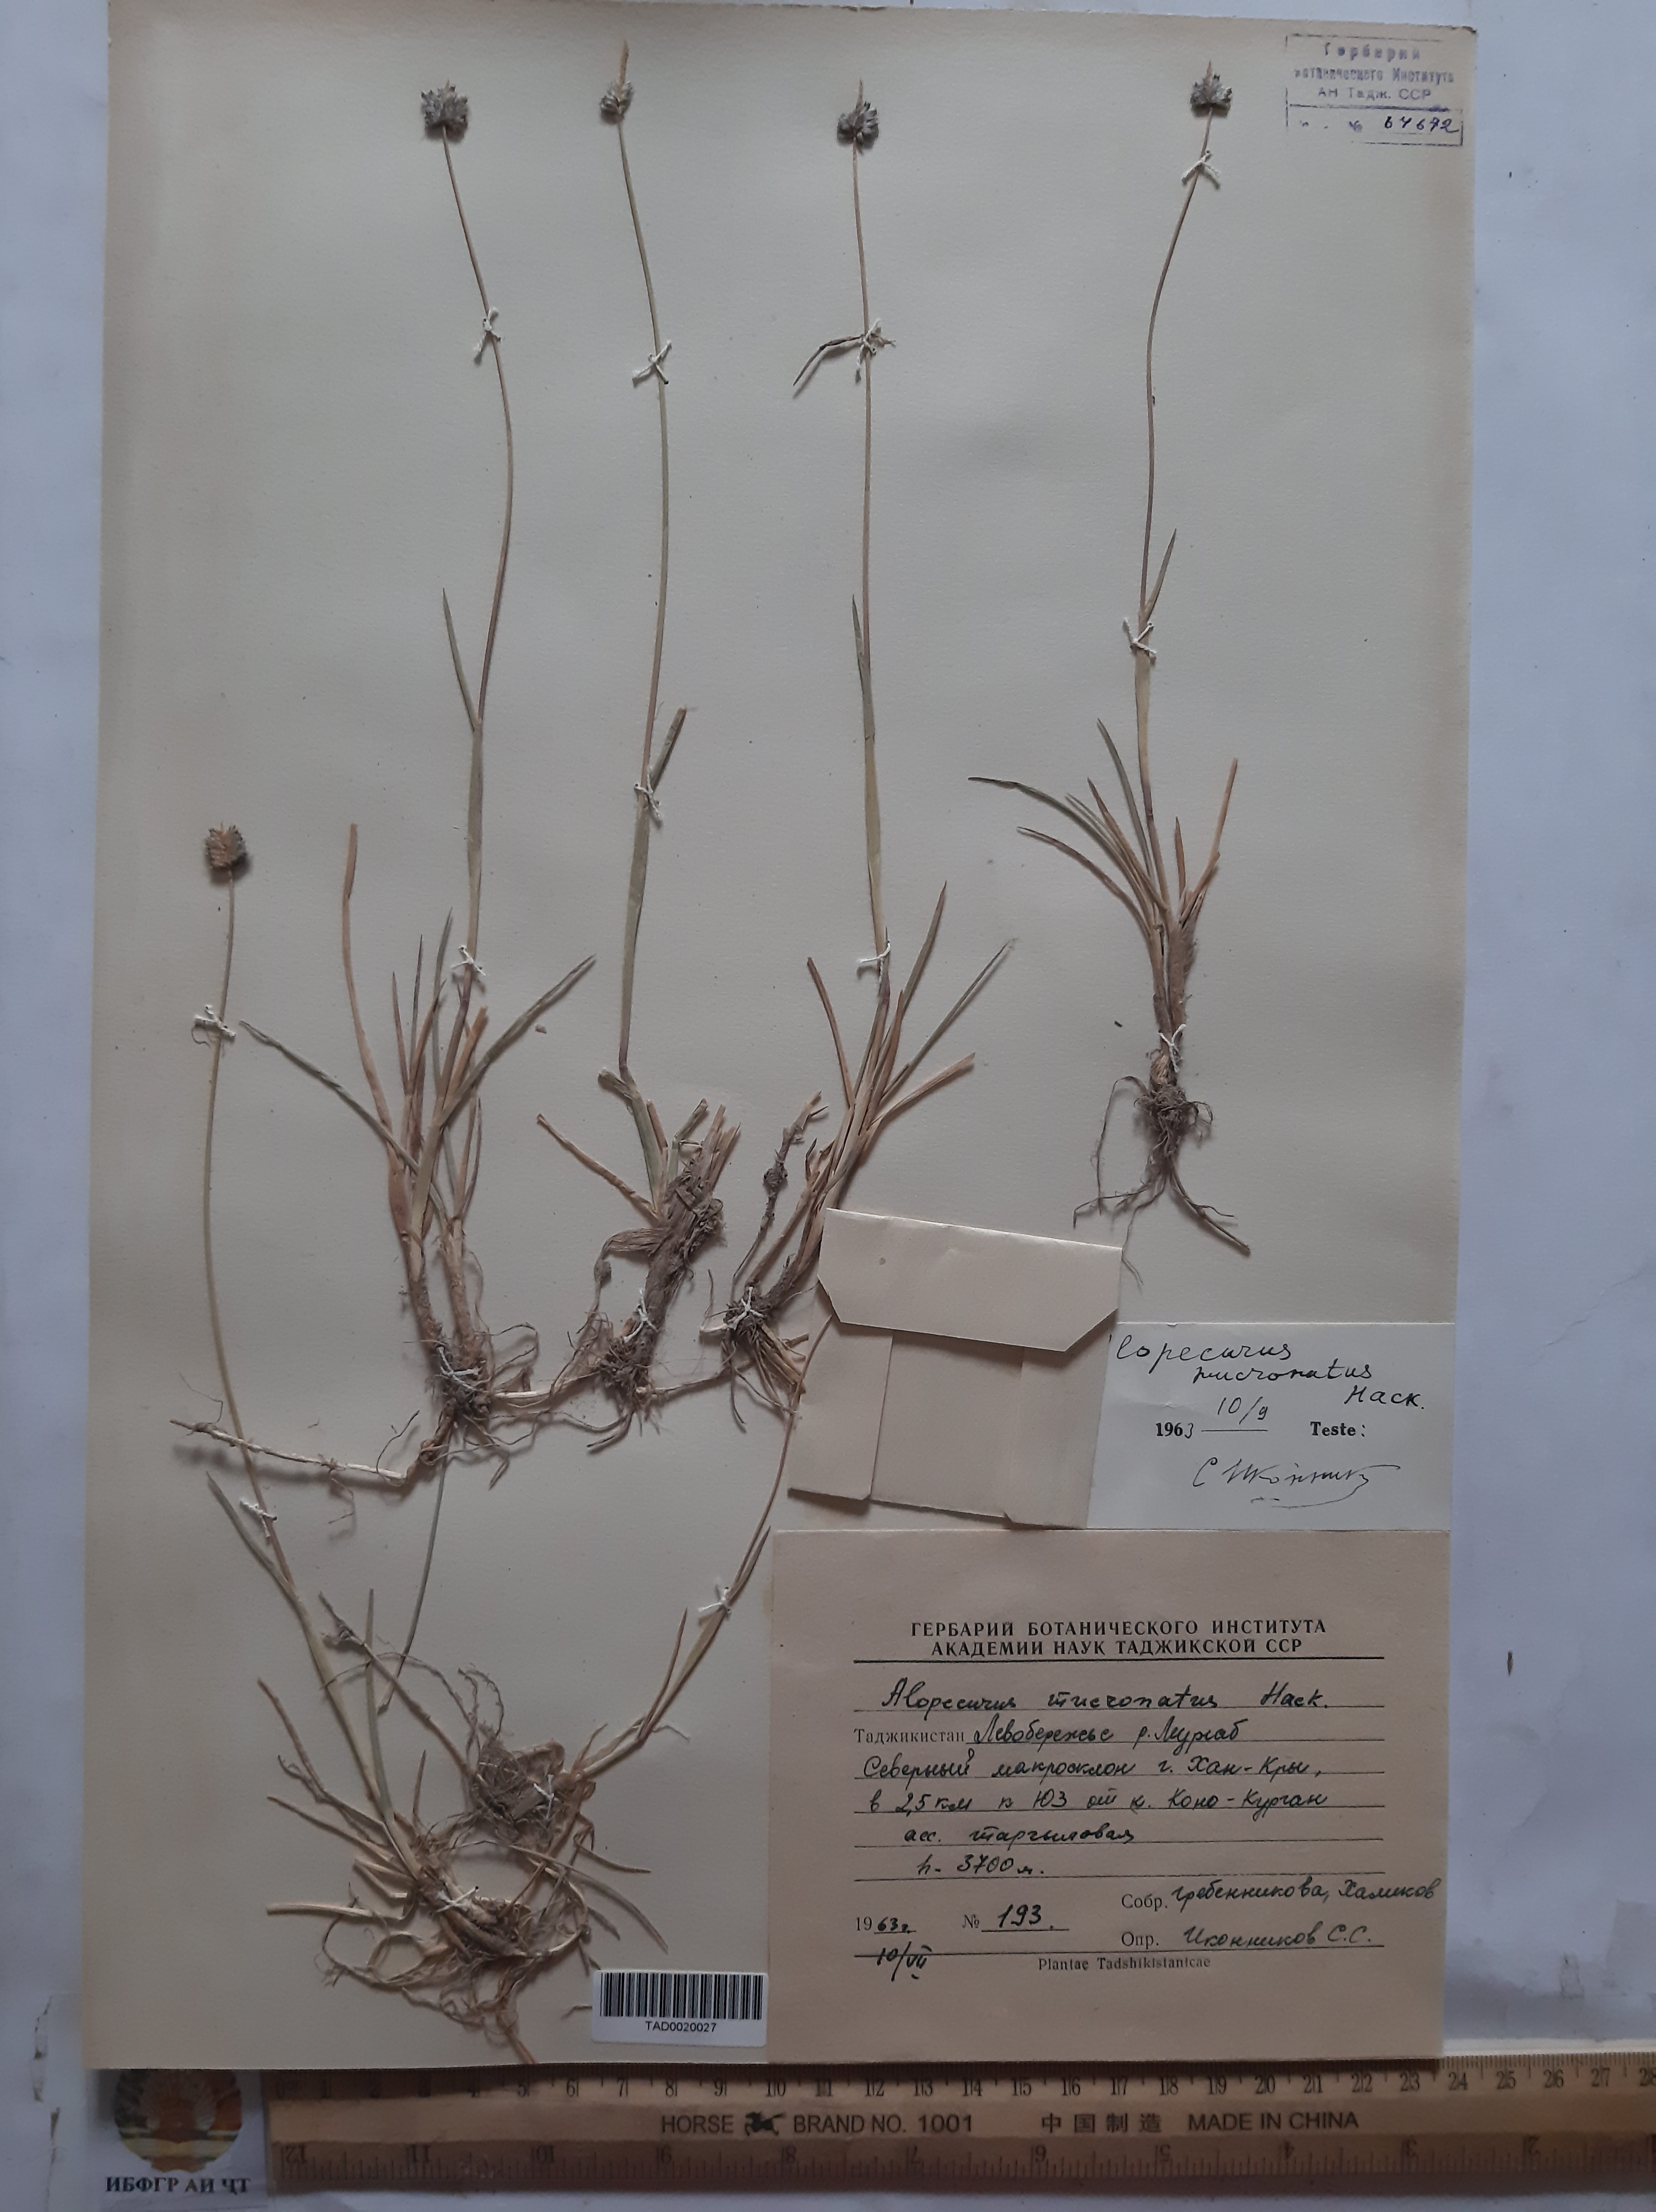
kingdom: Plantae
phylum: Tracheophyta
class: Liliopsida
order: Poales
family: Poaceae
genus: Alopecurus
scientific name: Alopecurus mucronatus
